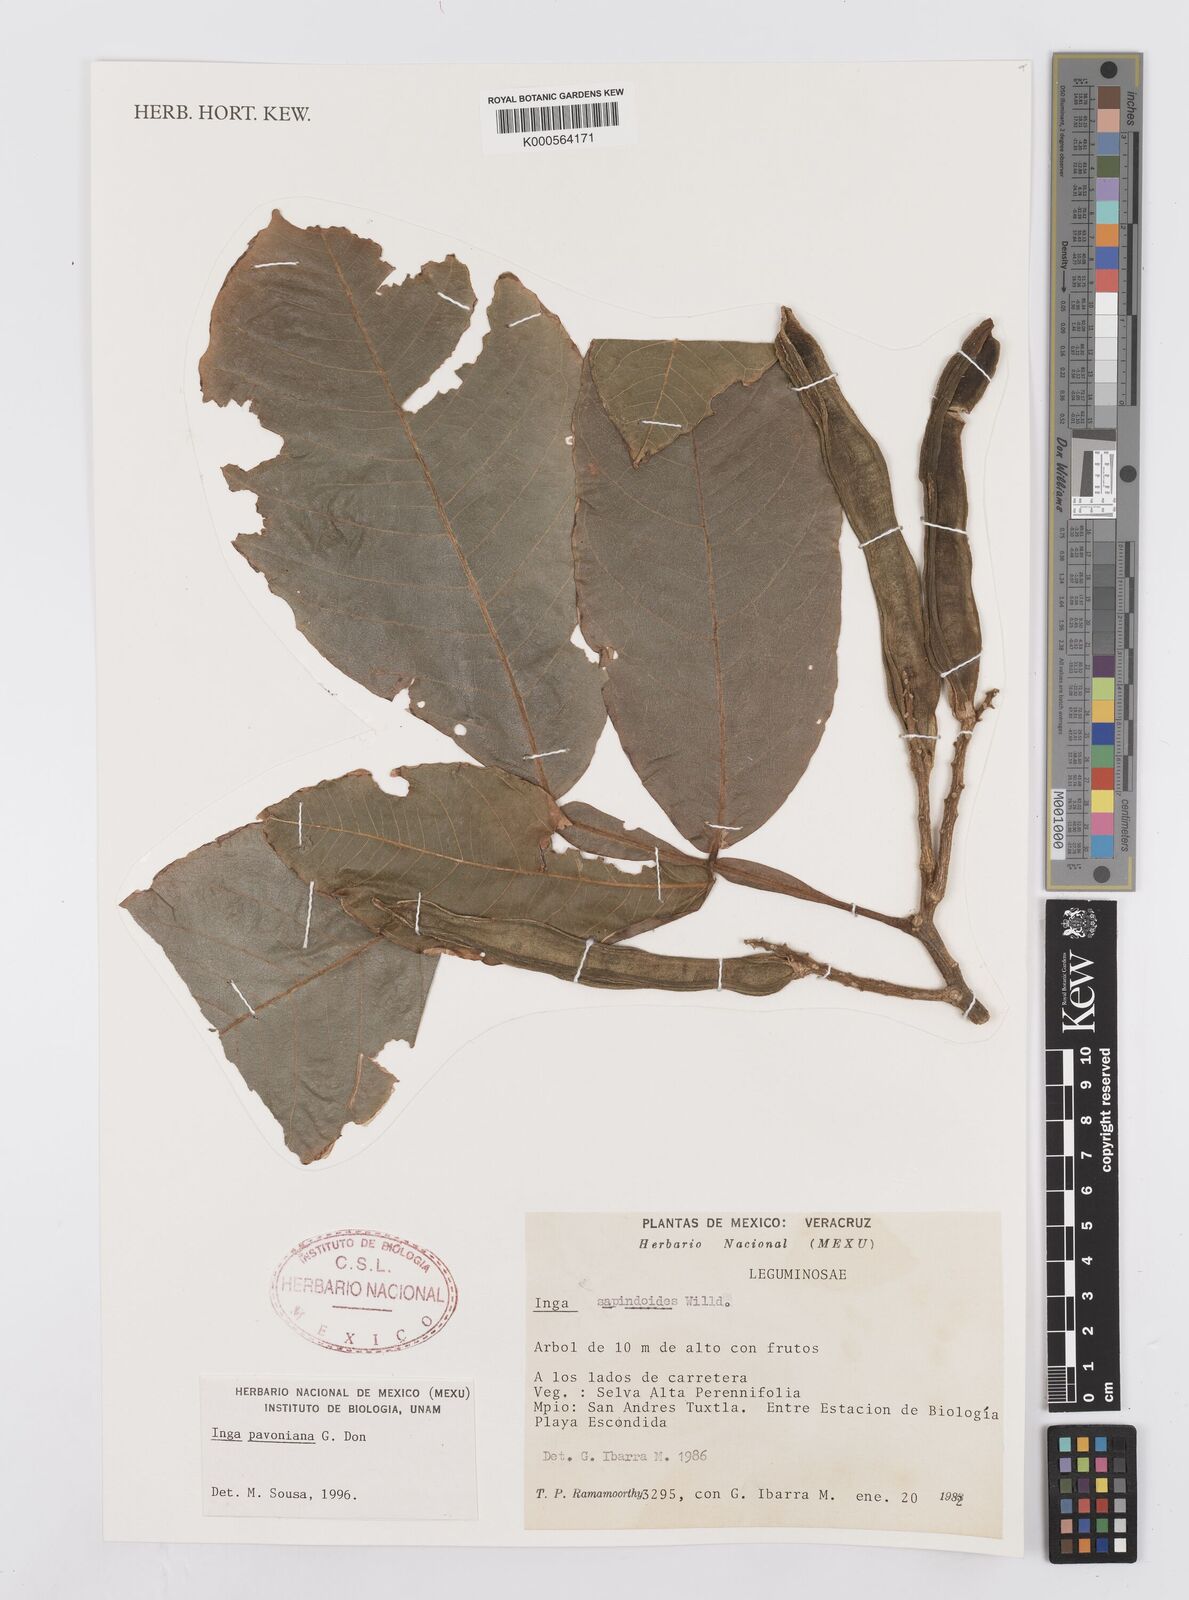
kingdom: Plantae
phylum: Tracheophyta
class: Magnoliopsida
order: Fabales
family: Fabaceae
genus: Inga
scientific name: Inga sapindoides
